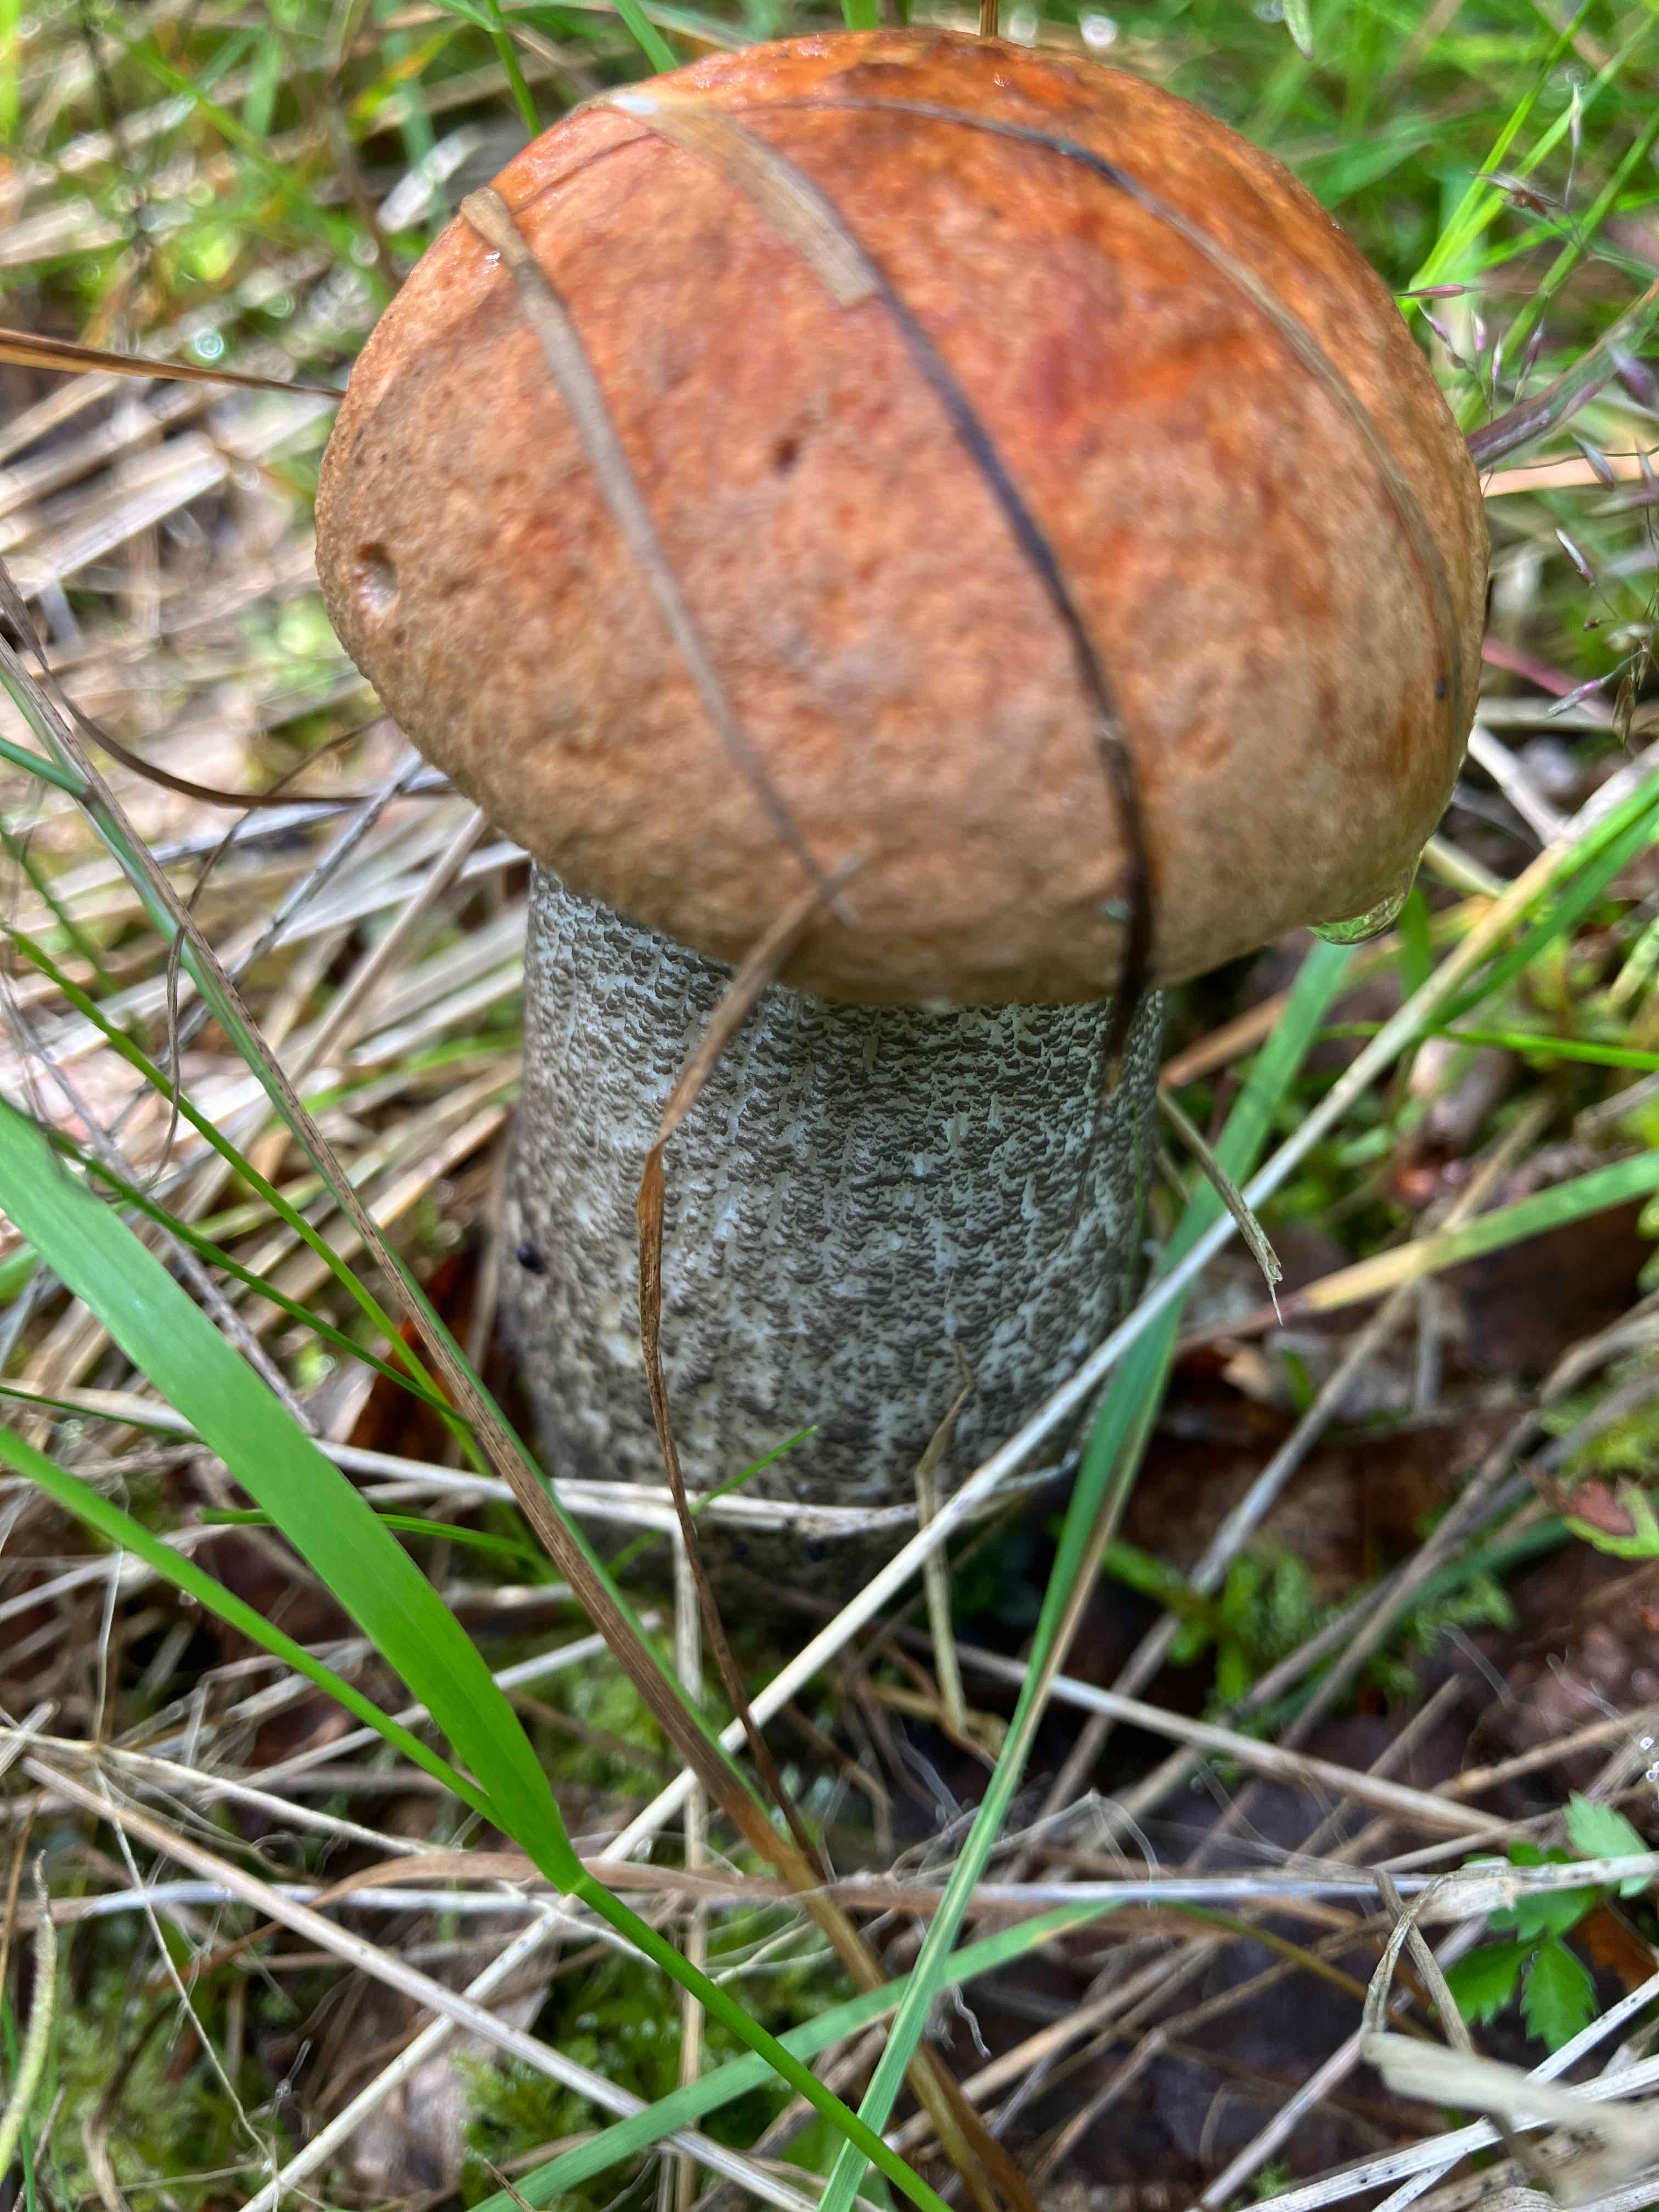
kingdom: Fungi
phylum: Basidiomycota
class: Agaricomycetes
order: Boletales
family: Boletaceae
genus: Leccinum
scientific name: Leccinum versipelle
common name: orange skælrørhat
